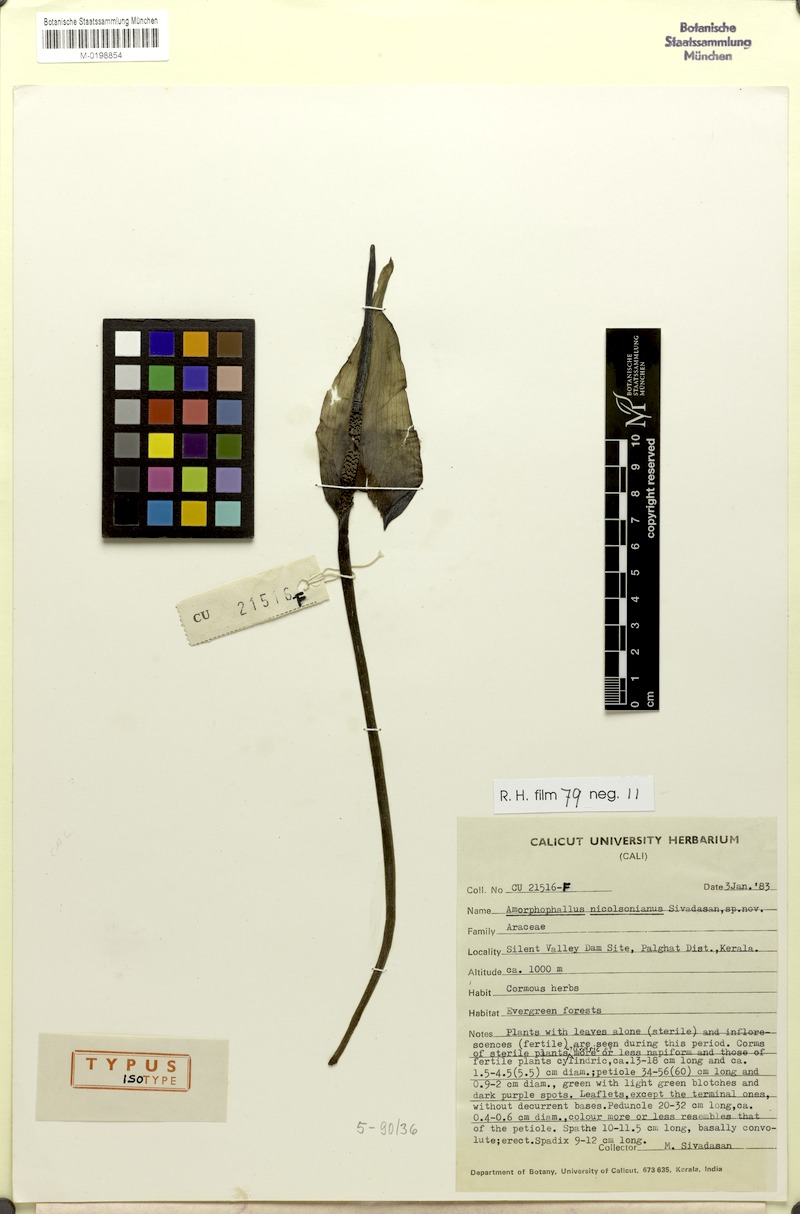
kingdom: Plantae
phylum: Tracheophyta
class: Liliopsida
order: Alismatales
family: Araceae
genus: Amorphophallus
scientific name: Amorphophallus nicolsonianus
